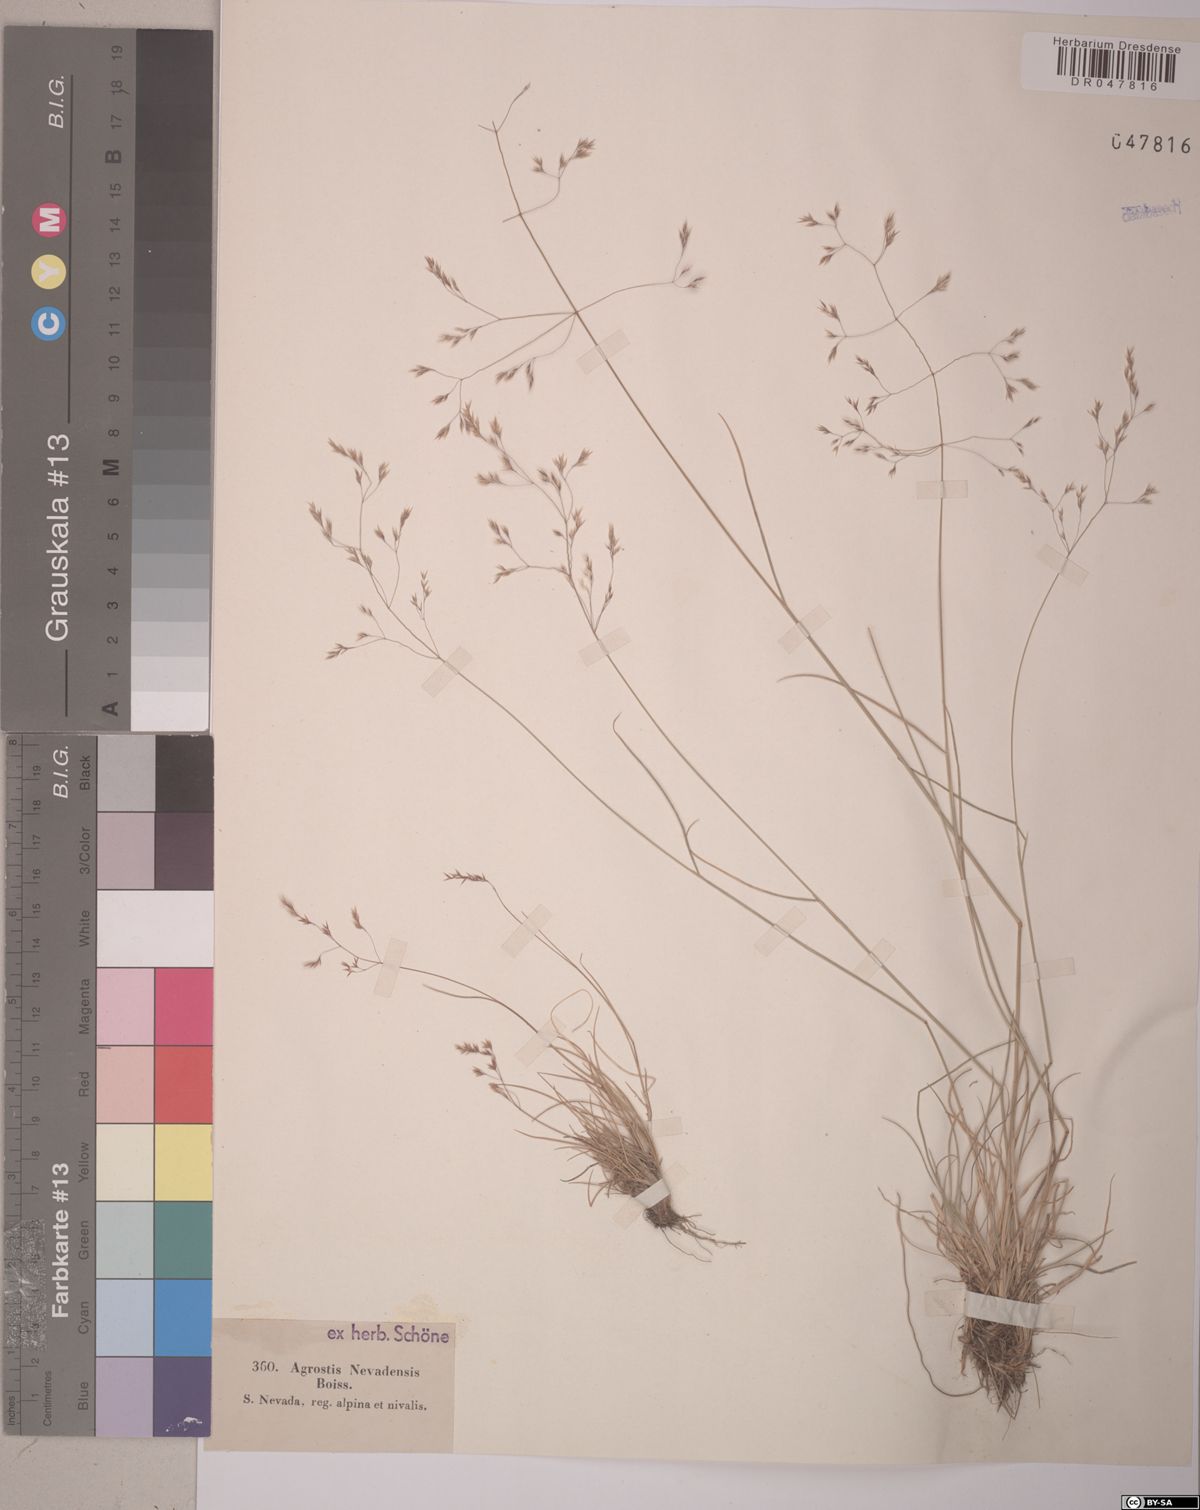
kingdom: Plantae
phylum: Tracheophyta
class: Liliopsida
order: Poales
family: Poaceae
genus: Agrostis
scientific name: Agrostis nevadensis
